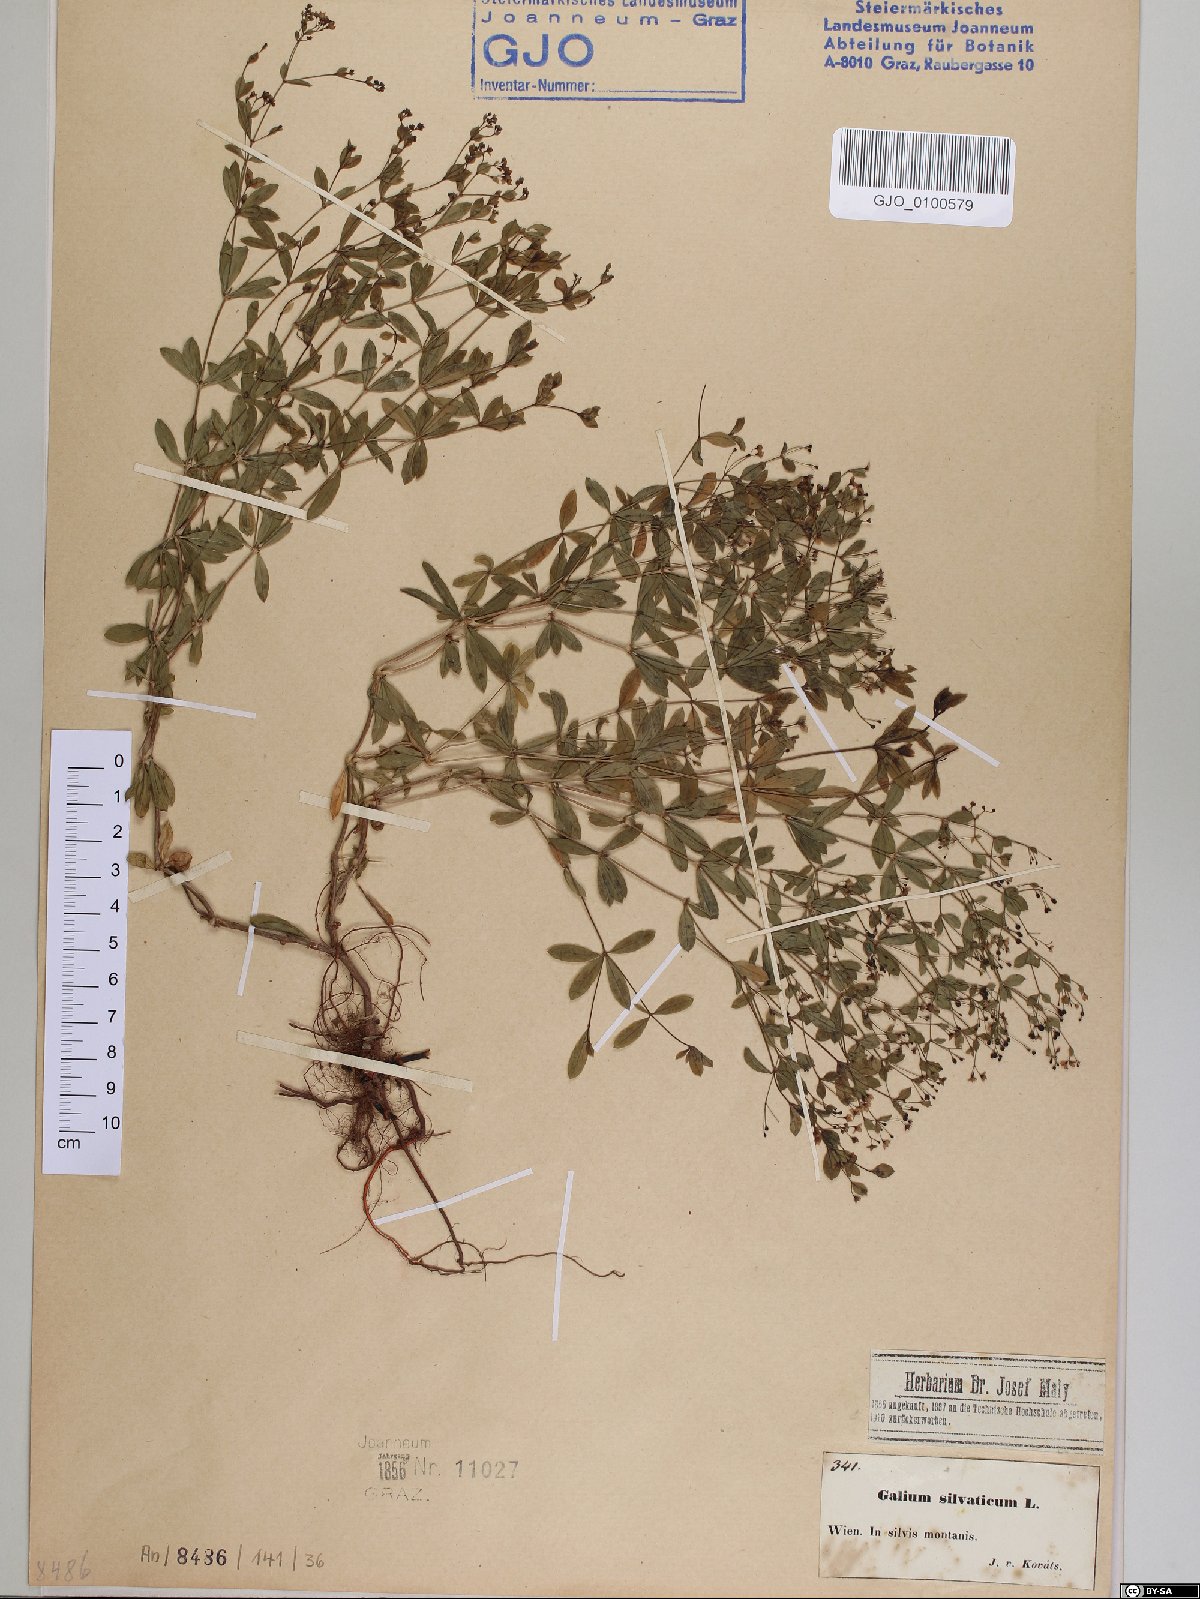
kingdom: Plantae
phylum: Tracheophyta
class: Magnoliopsida
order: Gentianales
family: Rubiaceae
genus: Galium
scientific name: Galium sylvaticum
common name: Wood bedstraw
